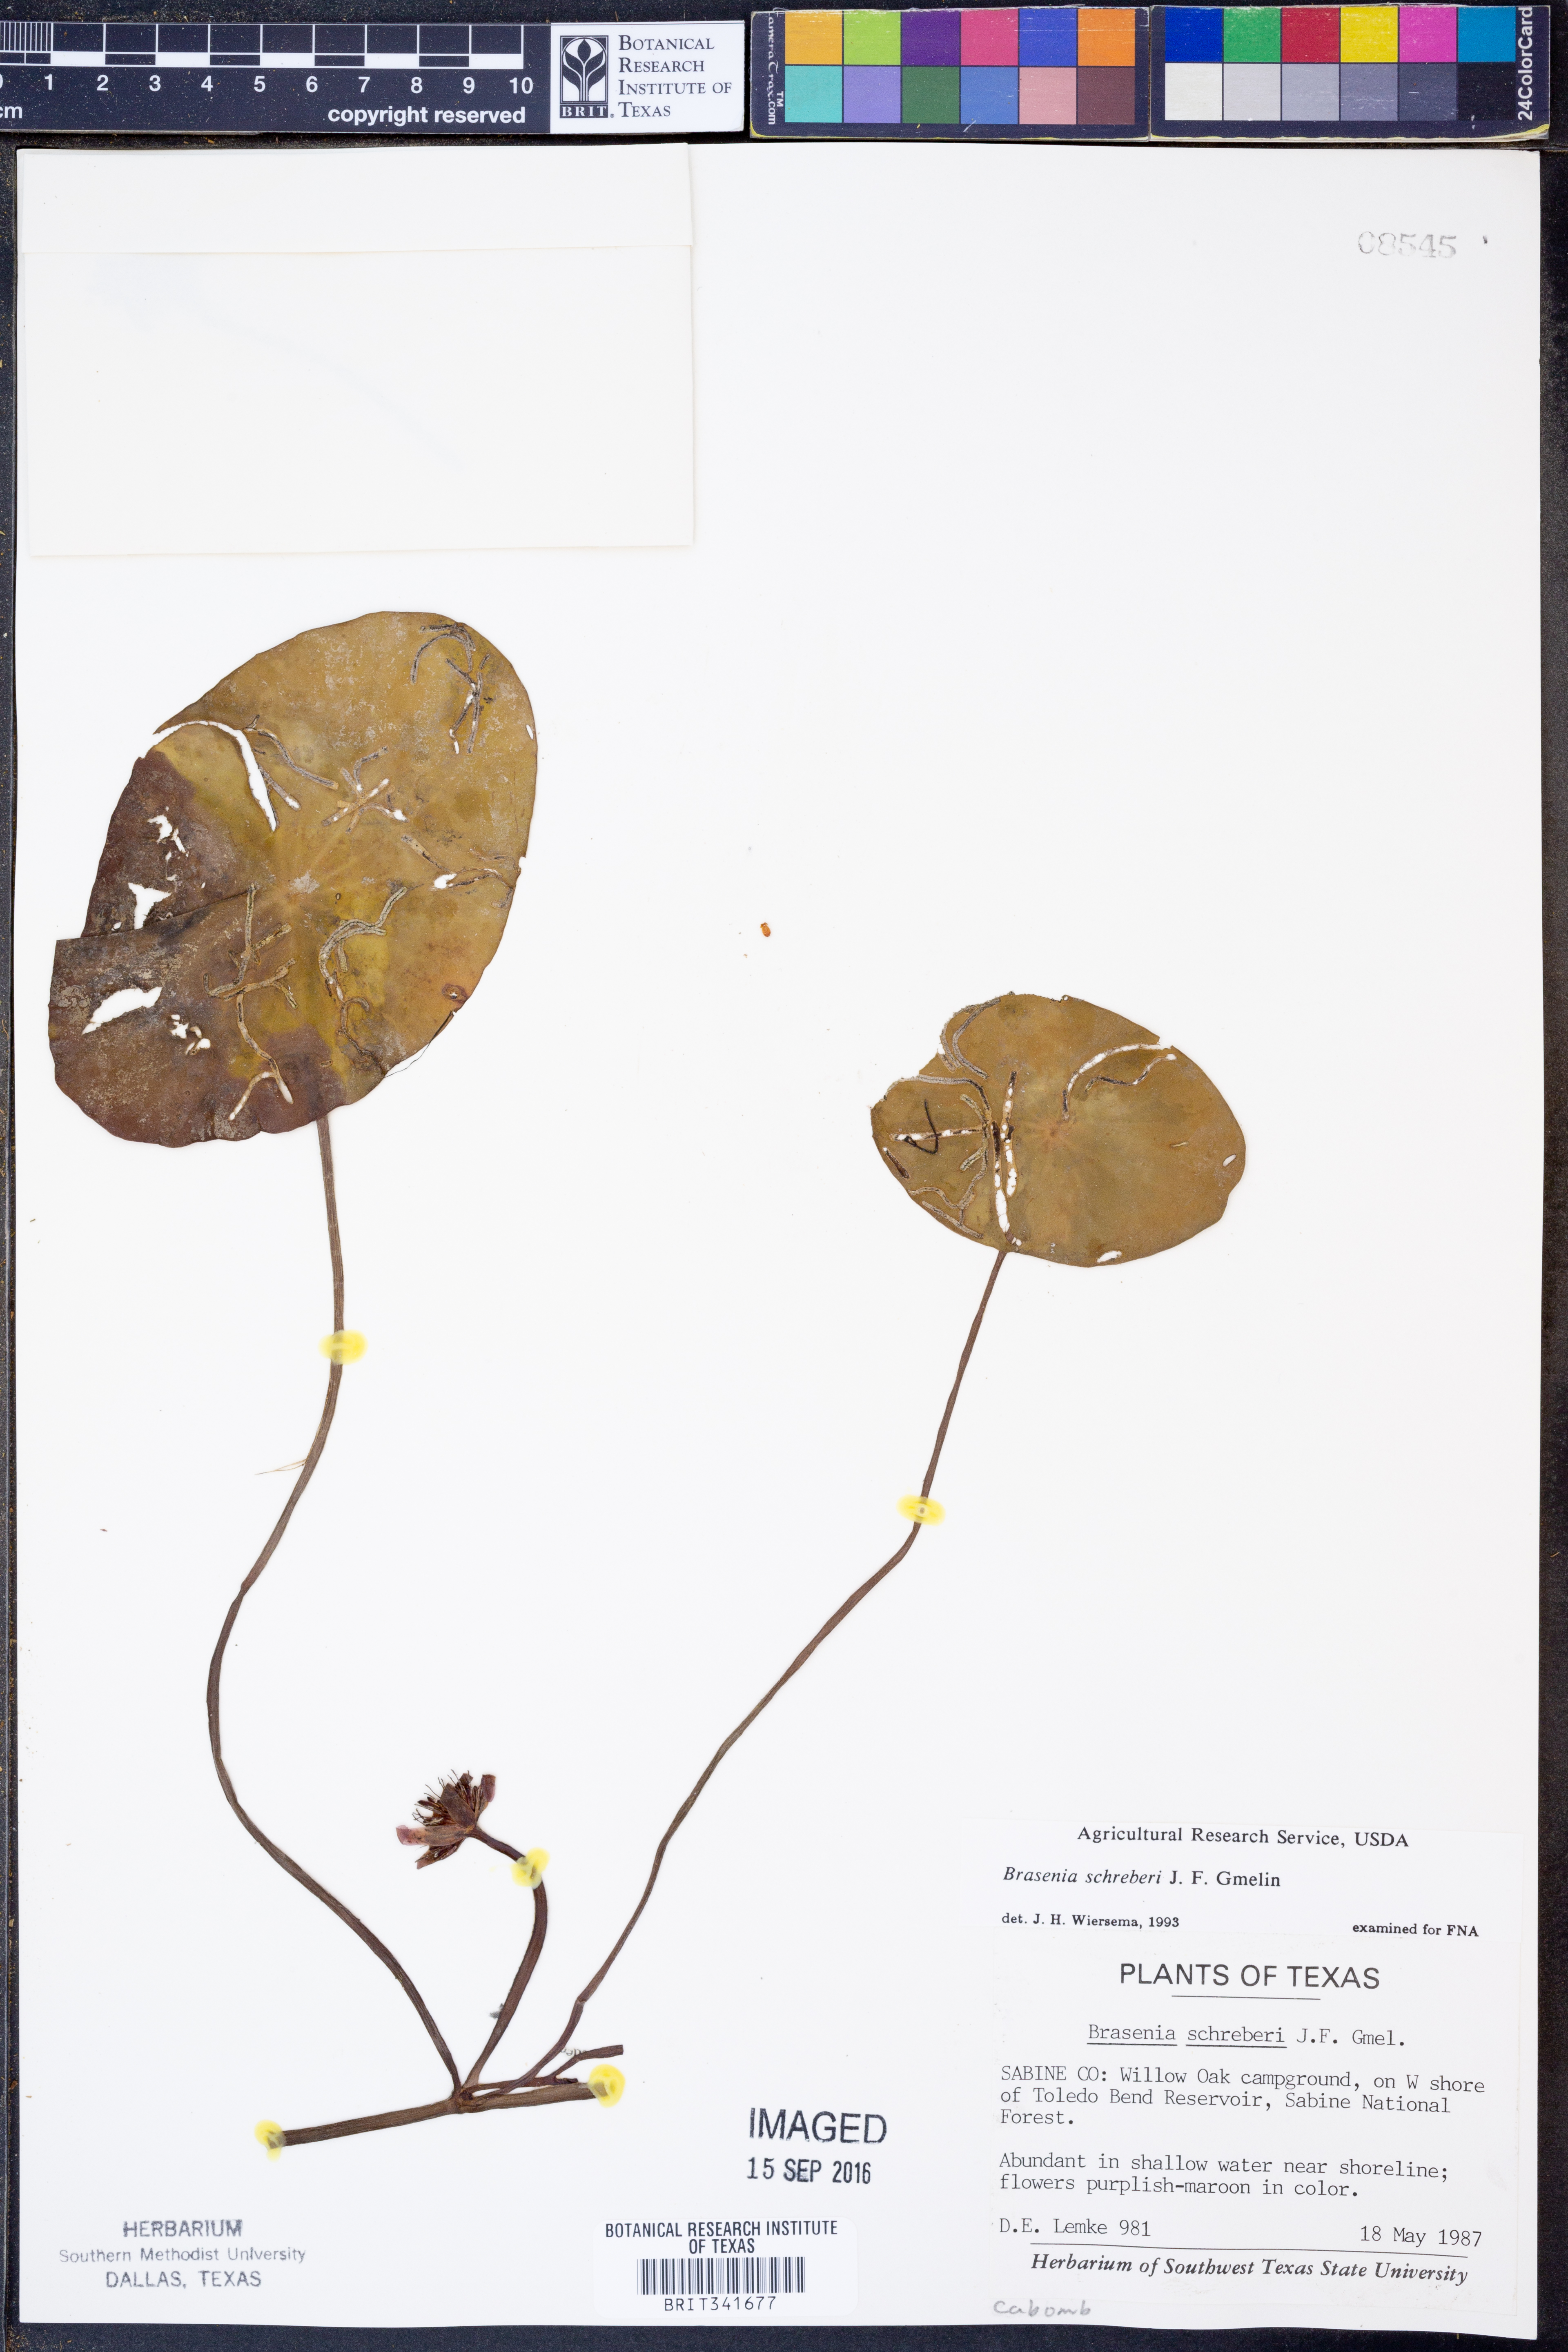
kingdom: Plantae
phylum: Tracheophyta
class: Magnoliopsida
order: Nymphaeales
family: Cabombaceae
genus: Brasenia
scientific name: Brasenia schreberi
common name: Water-shield
